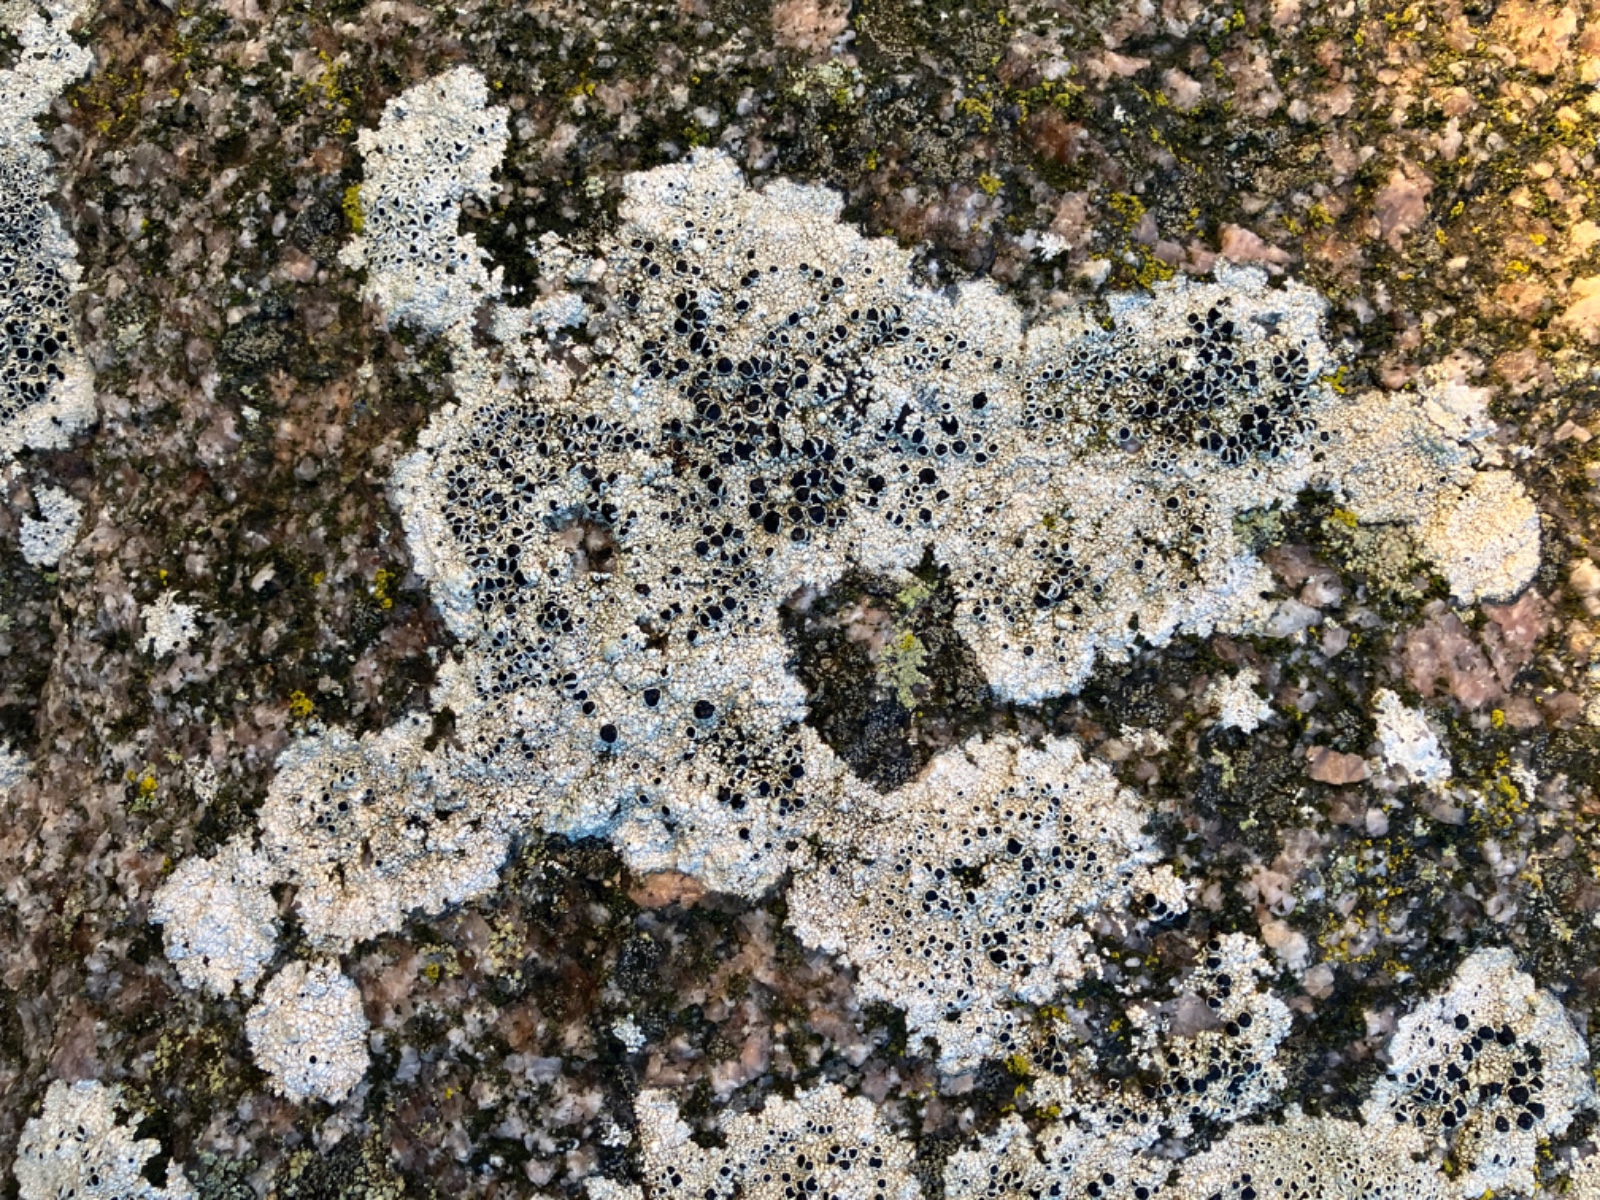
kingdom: Fungi
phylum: Ascomycota
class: Lecanoromycetes
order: Lecanorales
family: Tephromelataceae
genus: Tephromela
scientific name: Tephromela atra
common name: sortfrugtet kantskivelav
